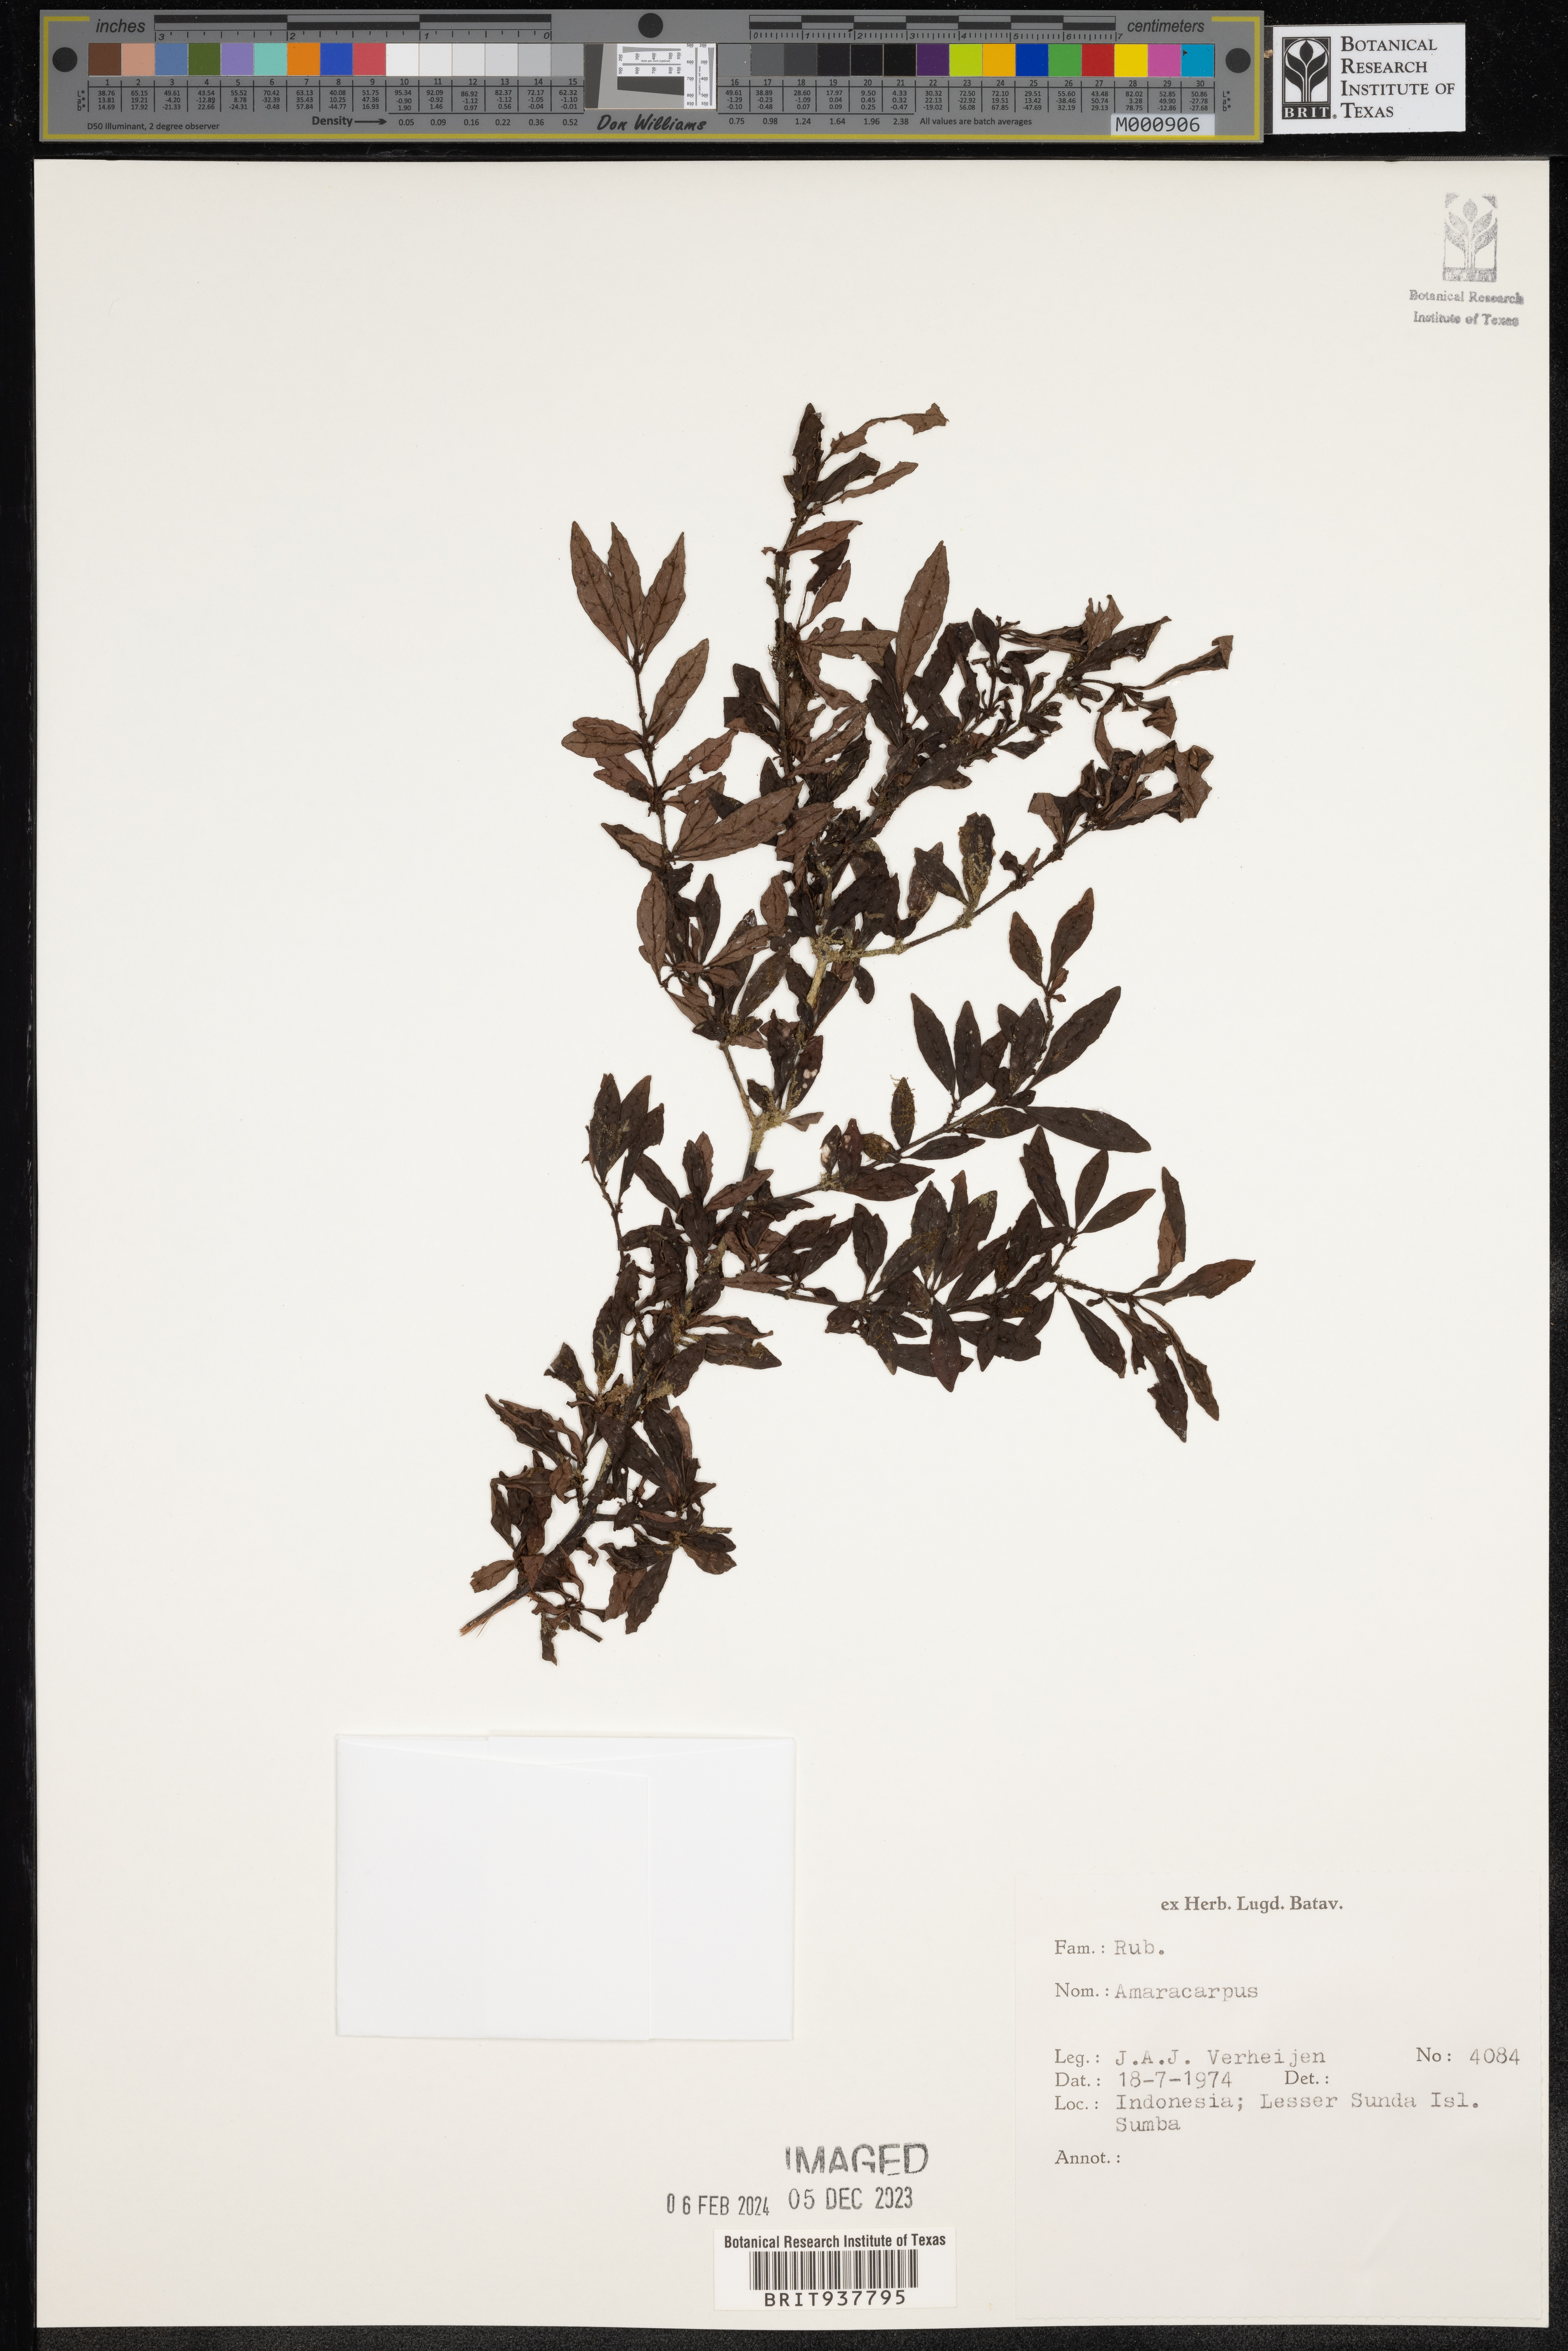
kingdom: Plantae
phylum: Tracheophyta
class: Magnoliopsida
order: Gentianales
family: Rubiaceae
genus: Amaracarpus
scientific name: Amaracarpus
